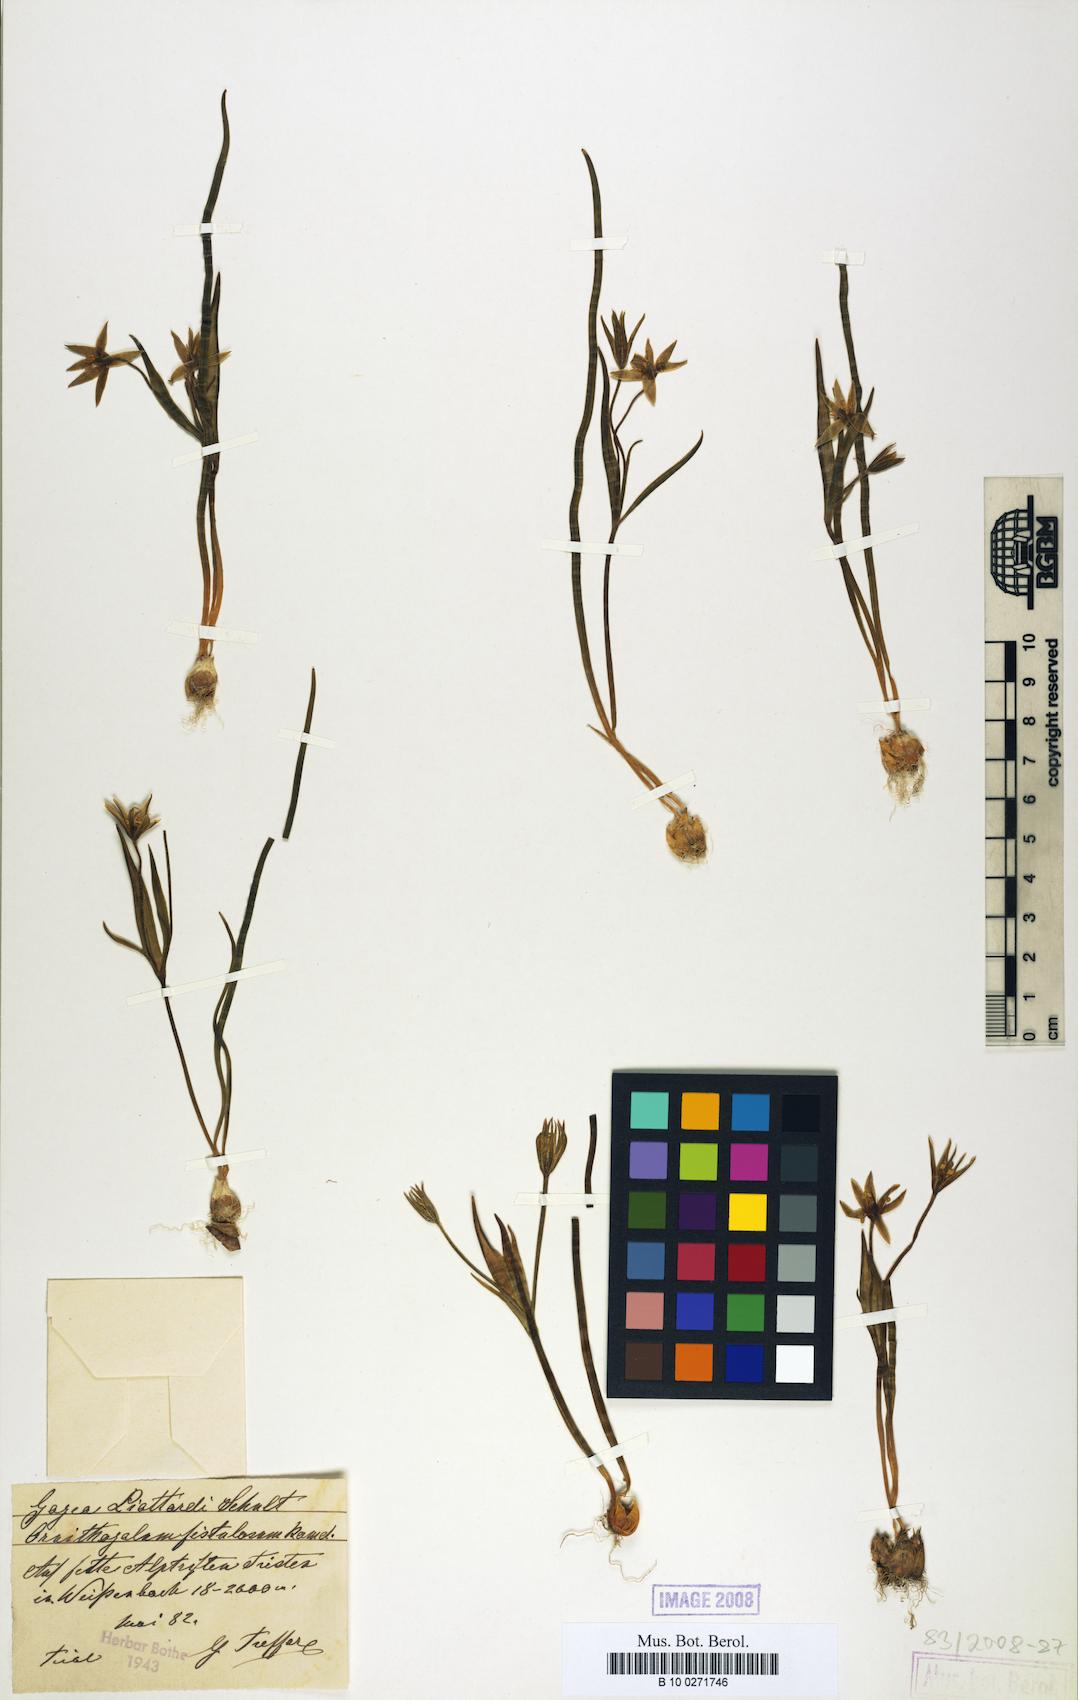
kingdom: Plantae
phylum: Tracheophyta
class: Liliopsida
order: Liliales
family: Liliaceae
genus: Gagea
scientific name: Gagea bohemica
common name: Early star-of-bethlehem
